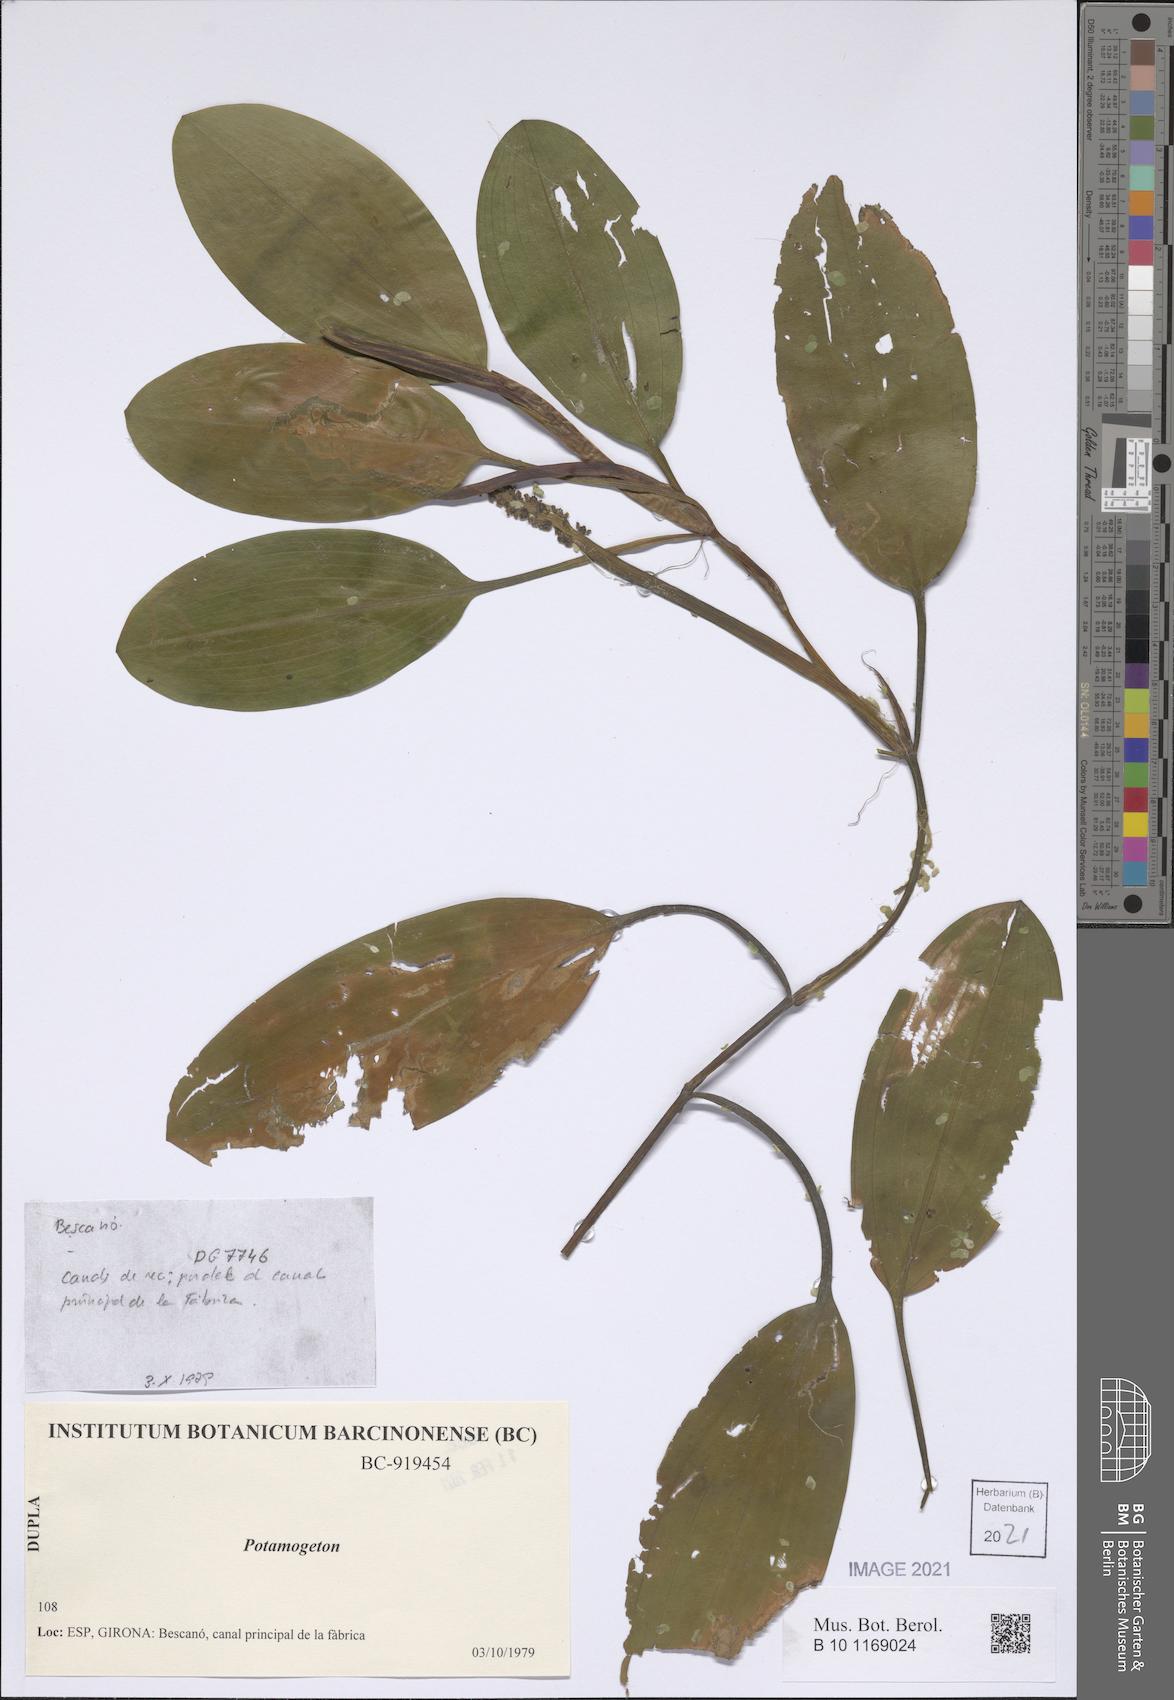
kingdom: Plantae
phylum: Tracheophyta
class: Liliopsida
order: Alismatales
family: Potamogetonaceae
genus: Potamogeton
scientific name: Potamogeton
